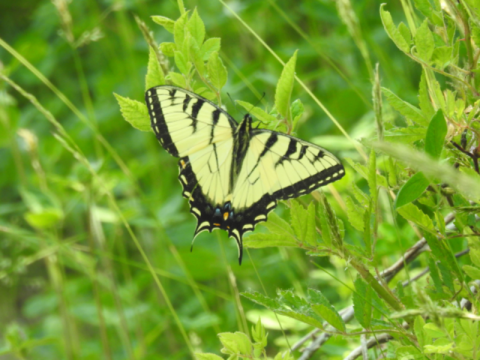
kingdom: Animalia
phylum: Arthropoda
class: Insecta
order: Lepidoptera
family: Papilionidae
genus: Pterourus
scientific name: Pterourus glaucus
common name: Eastern Tiger Swallowtail
